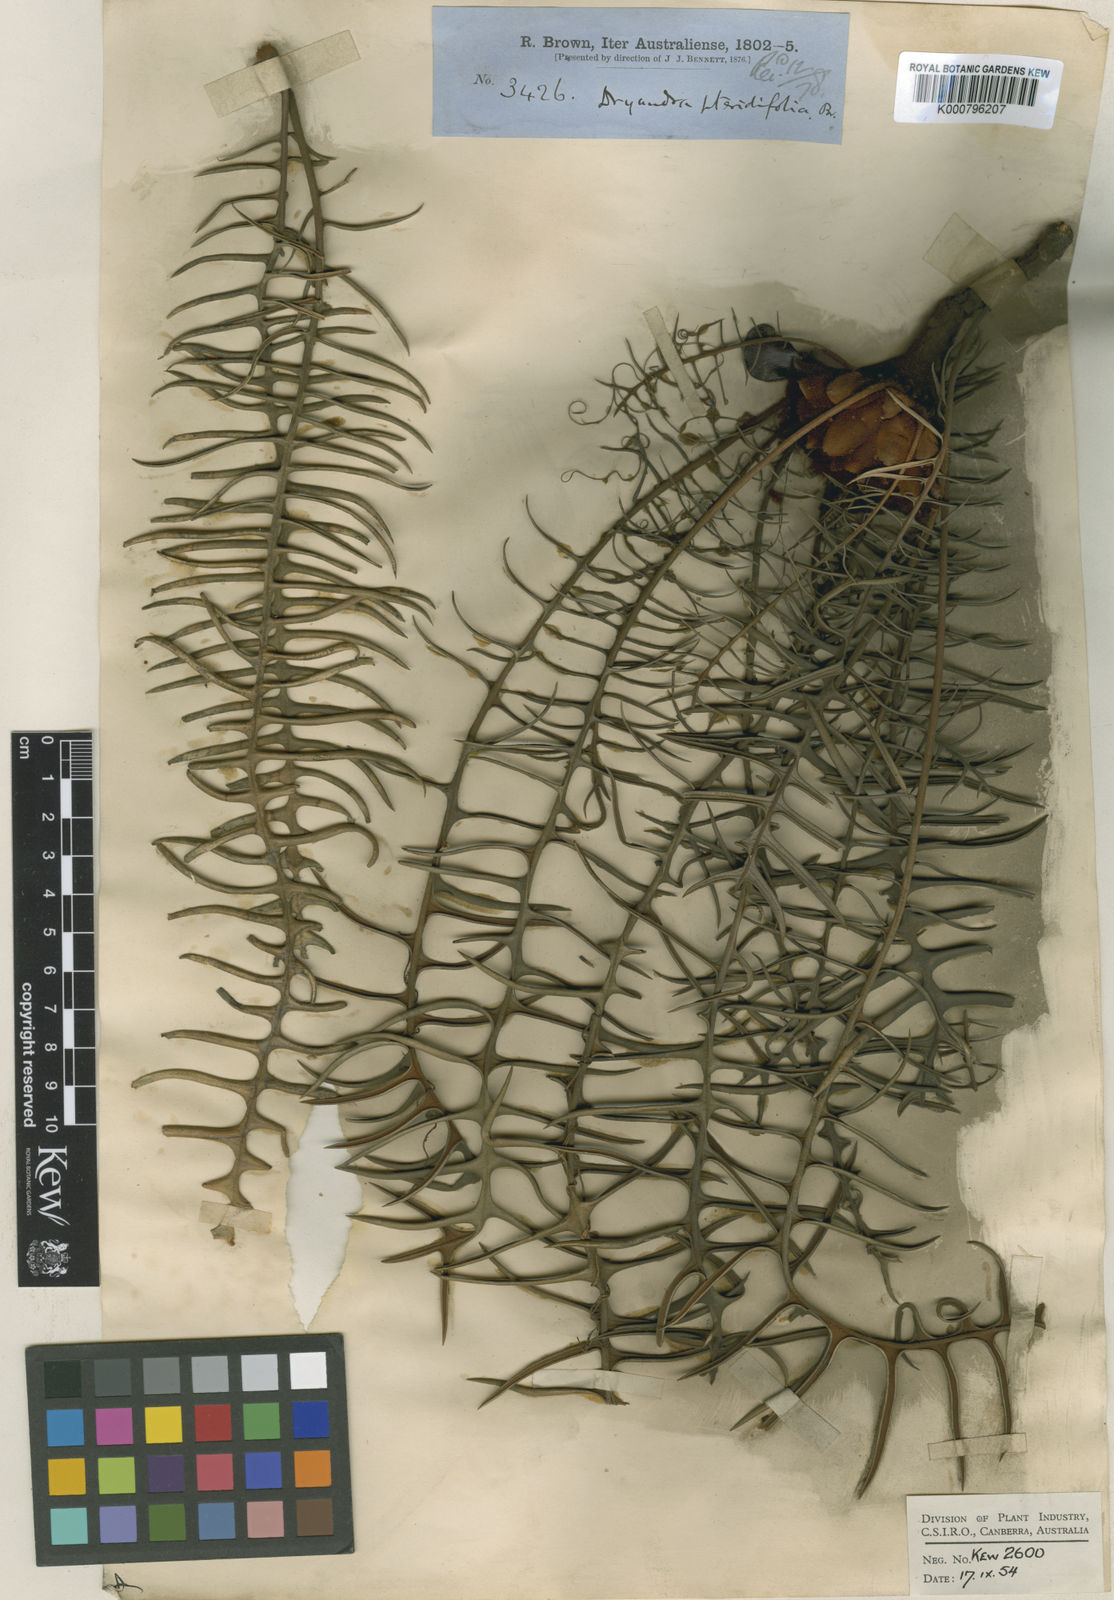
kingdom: Plantae
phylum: Tracheophyta
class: Magnoliopsida
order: Proteales
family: Proteaceae
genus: Banksia
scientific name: Banksia pteridifolia
